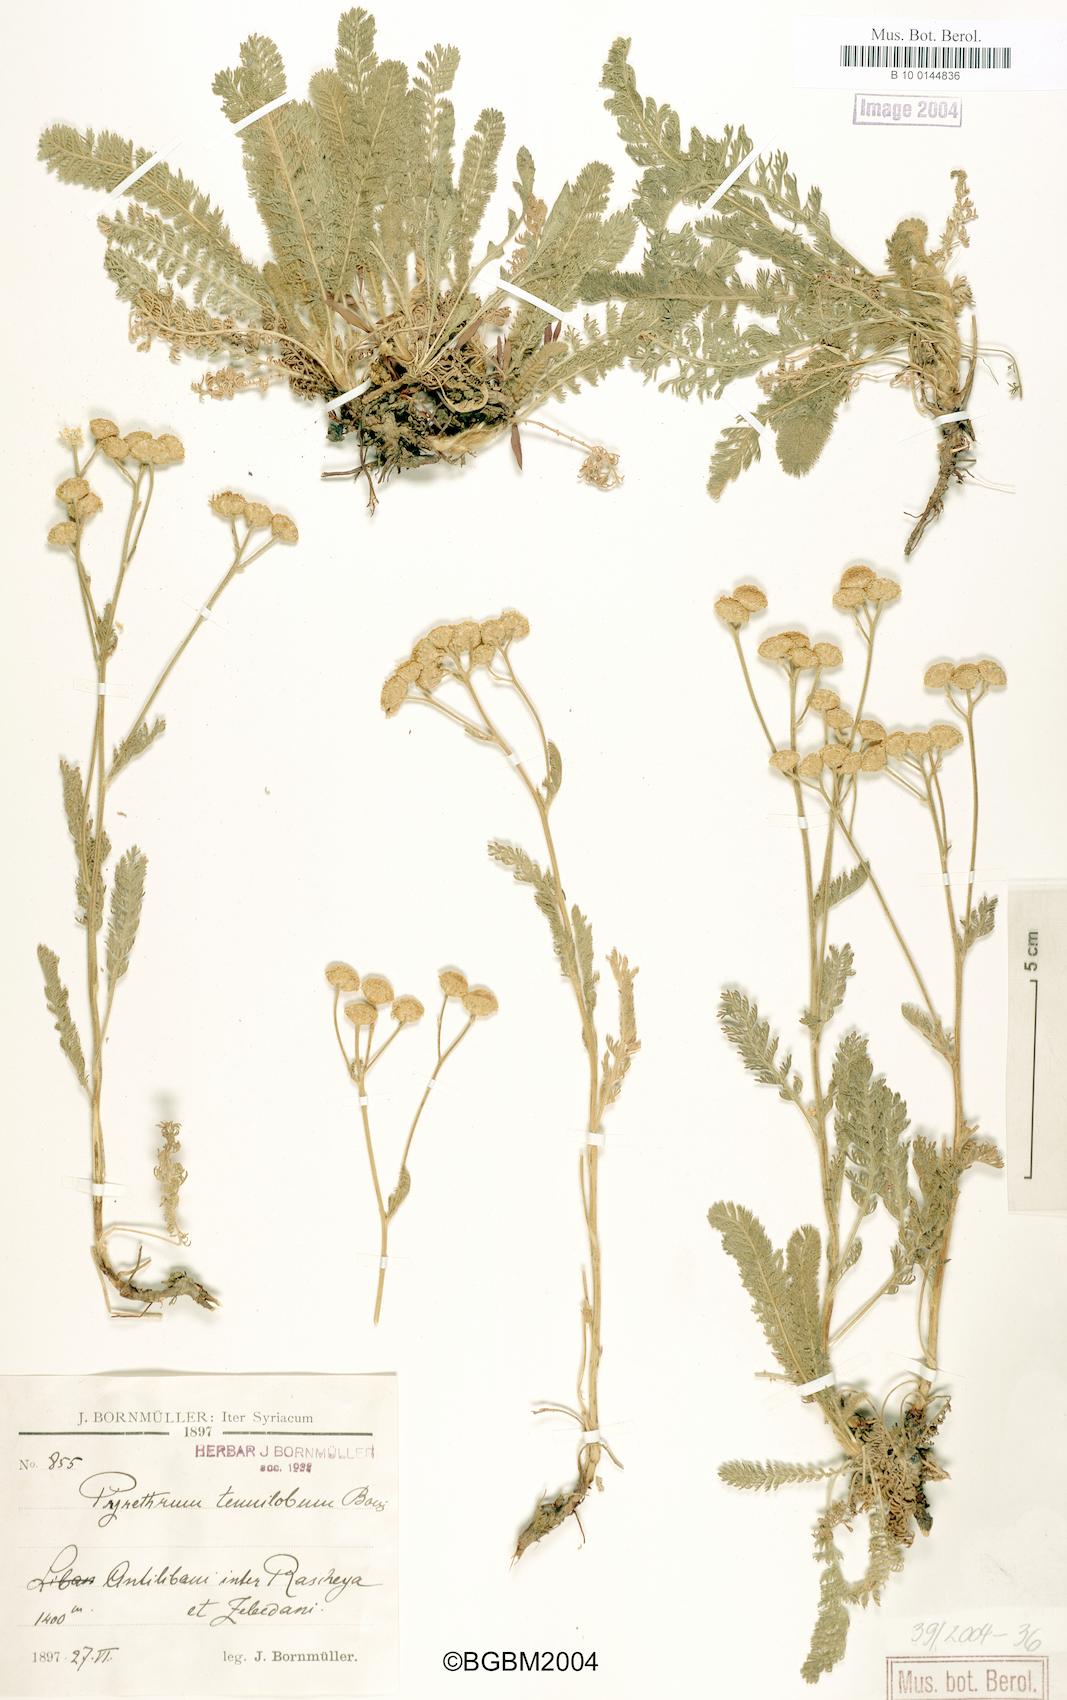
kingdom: Plantae
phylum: Tracheophyta
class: Magnoliopsida
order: Asterales
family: Asteraceae
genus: Tanacetum
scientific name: Tanacetum aucheri
